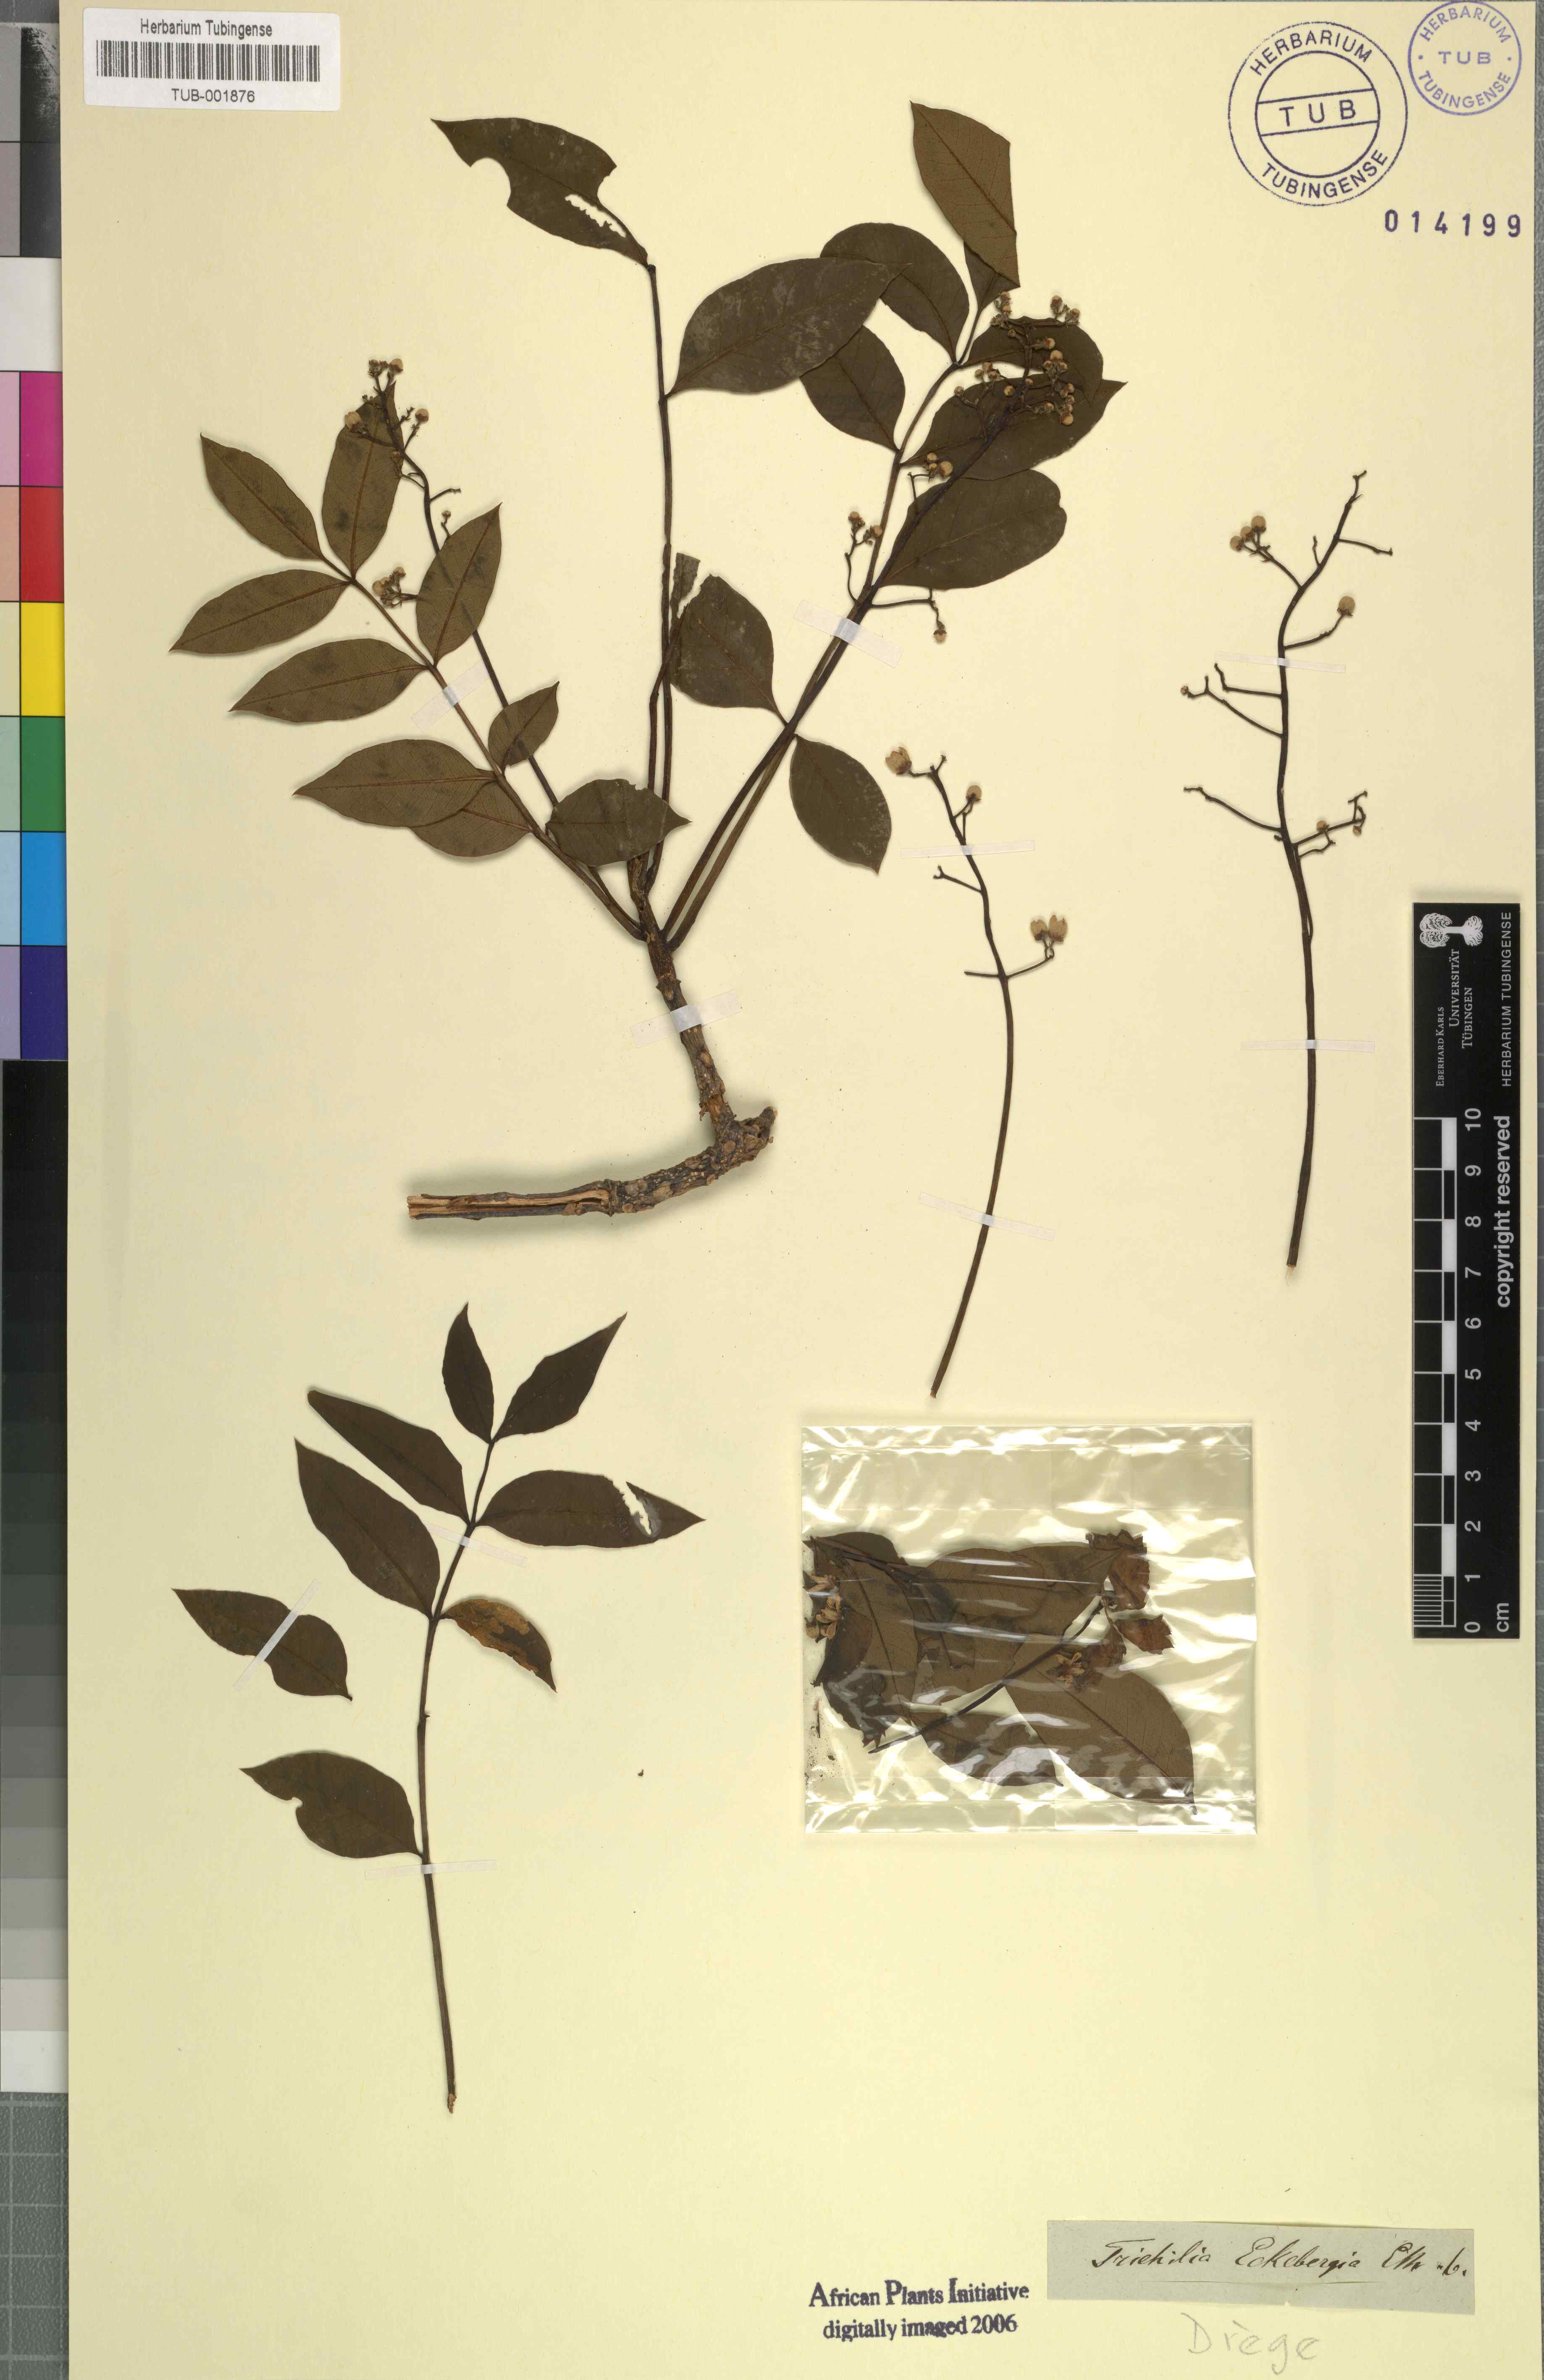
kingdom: Plantae
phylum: Tracheophyta
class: Magnoliopsida
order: Sapindales
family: Meliaceae
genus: Ekebergia
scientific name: Ekebergia capensis
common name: Cape-ash
